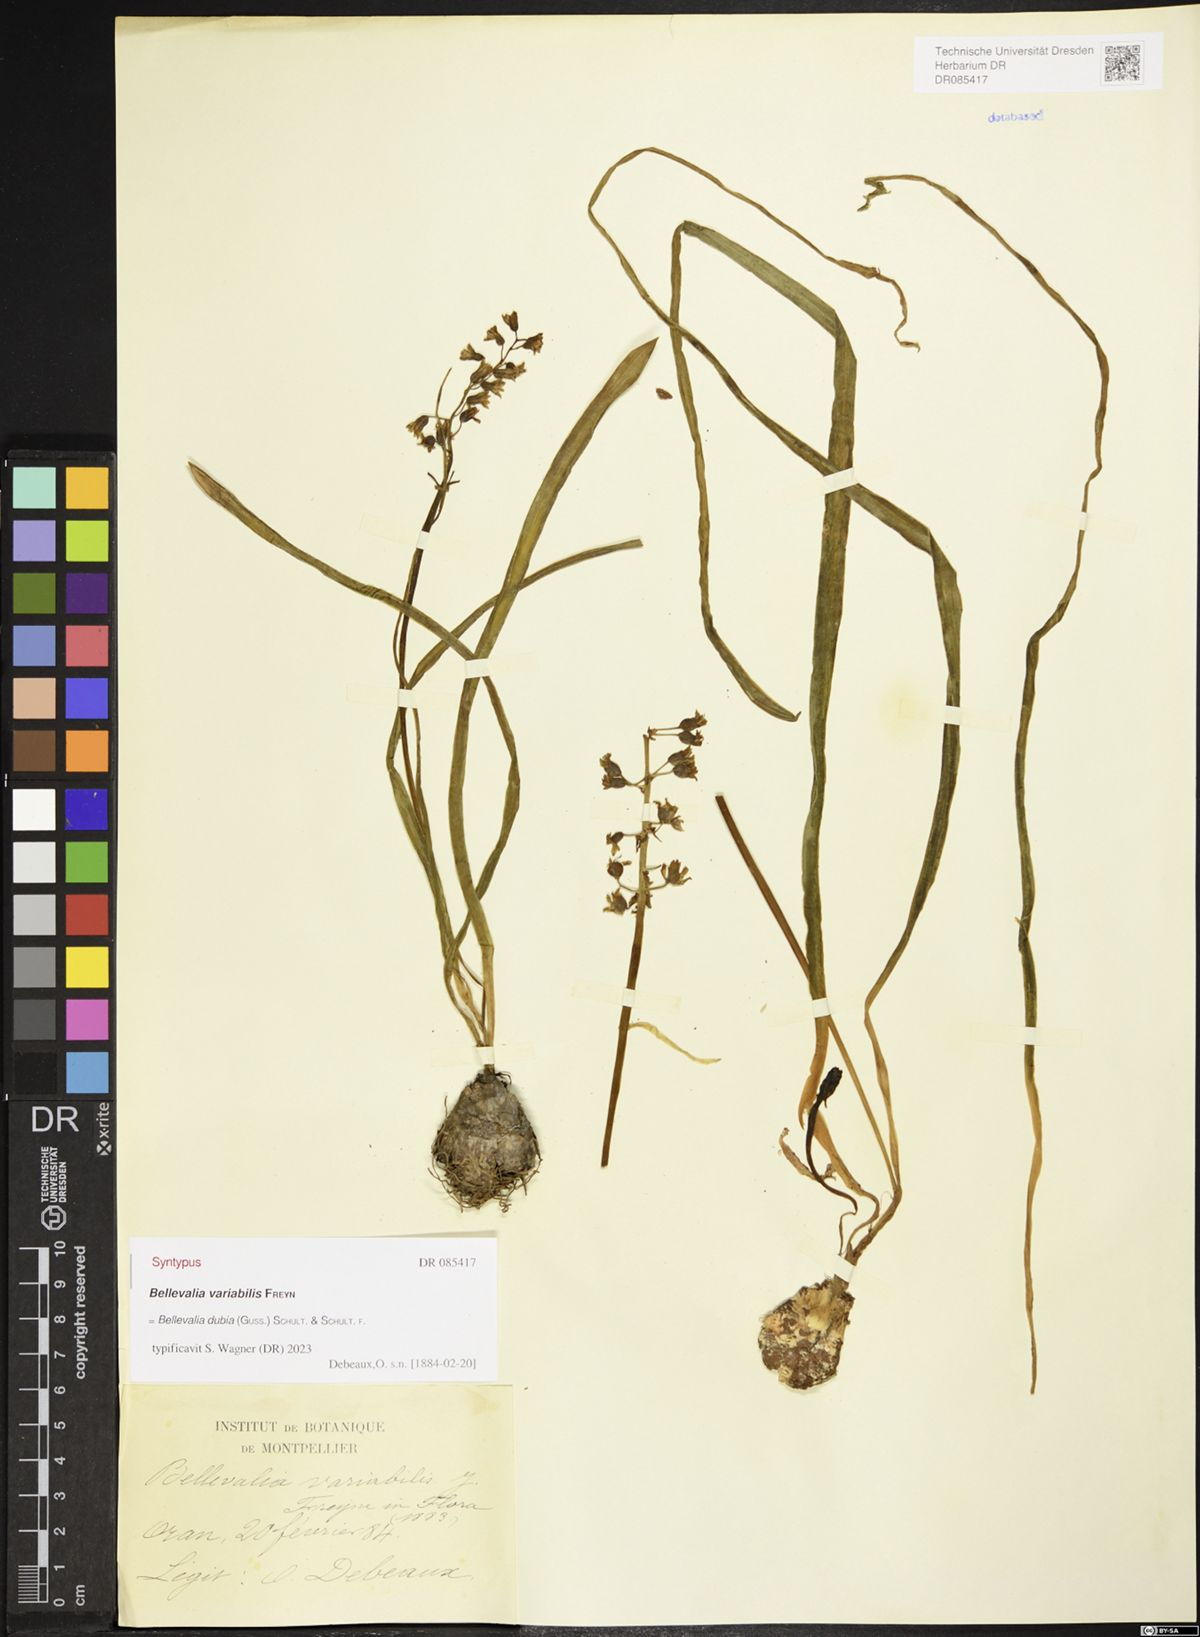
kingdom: Plantae
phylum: Tracheophyta
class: Liliopsida
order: Asparagales
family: Asparagaceae
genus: Bellevalia
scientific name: Bellevalia dubia
